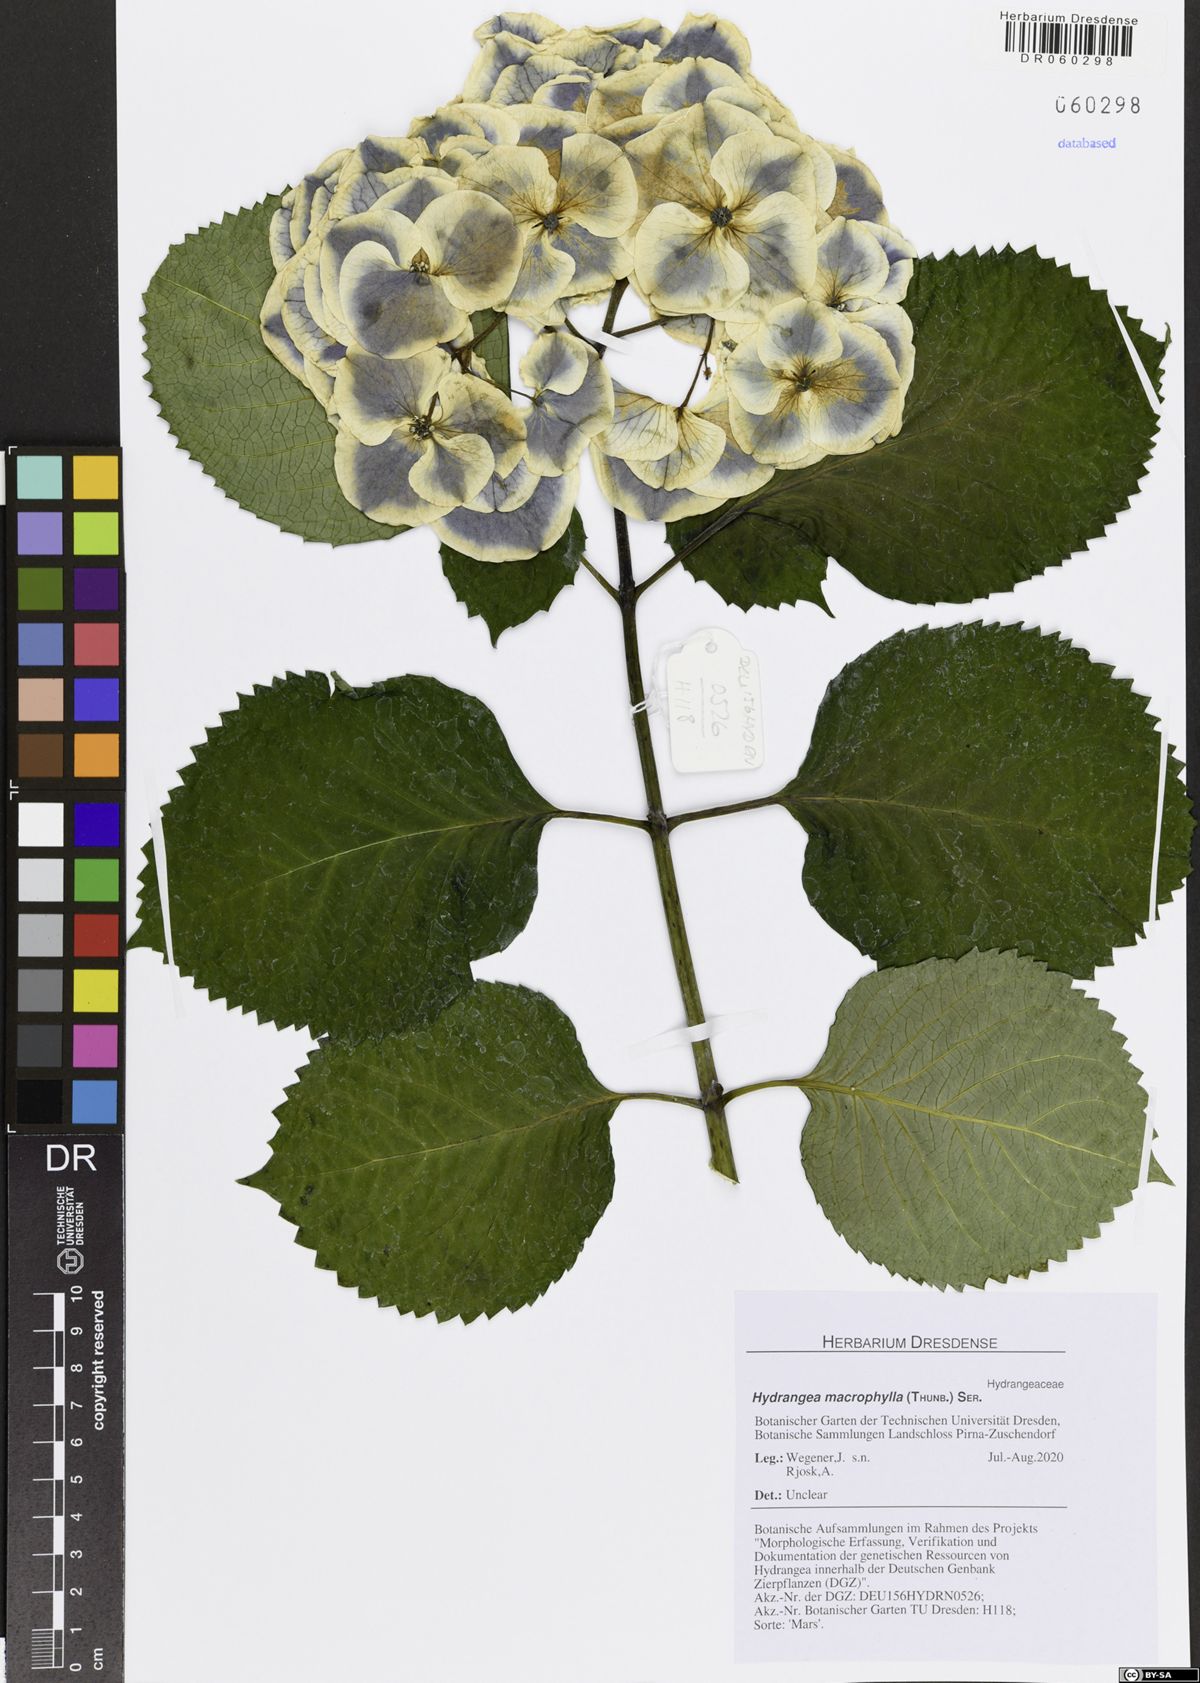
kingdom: Plantae
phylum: Tracheophyta
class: Magnoliopsida
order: Cornales
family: Hydrangeaceae
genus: Hydrangea
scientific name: Hydrangea macrophylla
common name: Hydrangea
